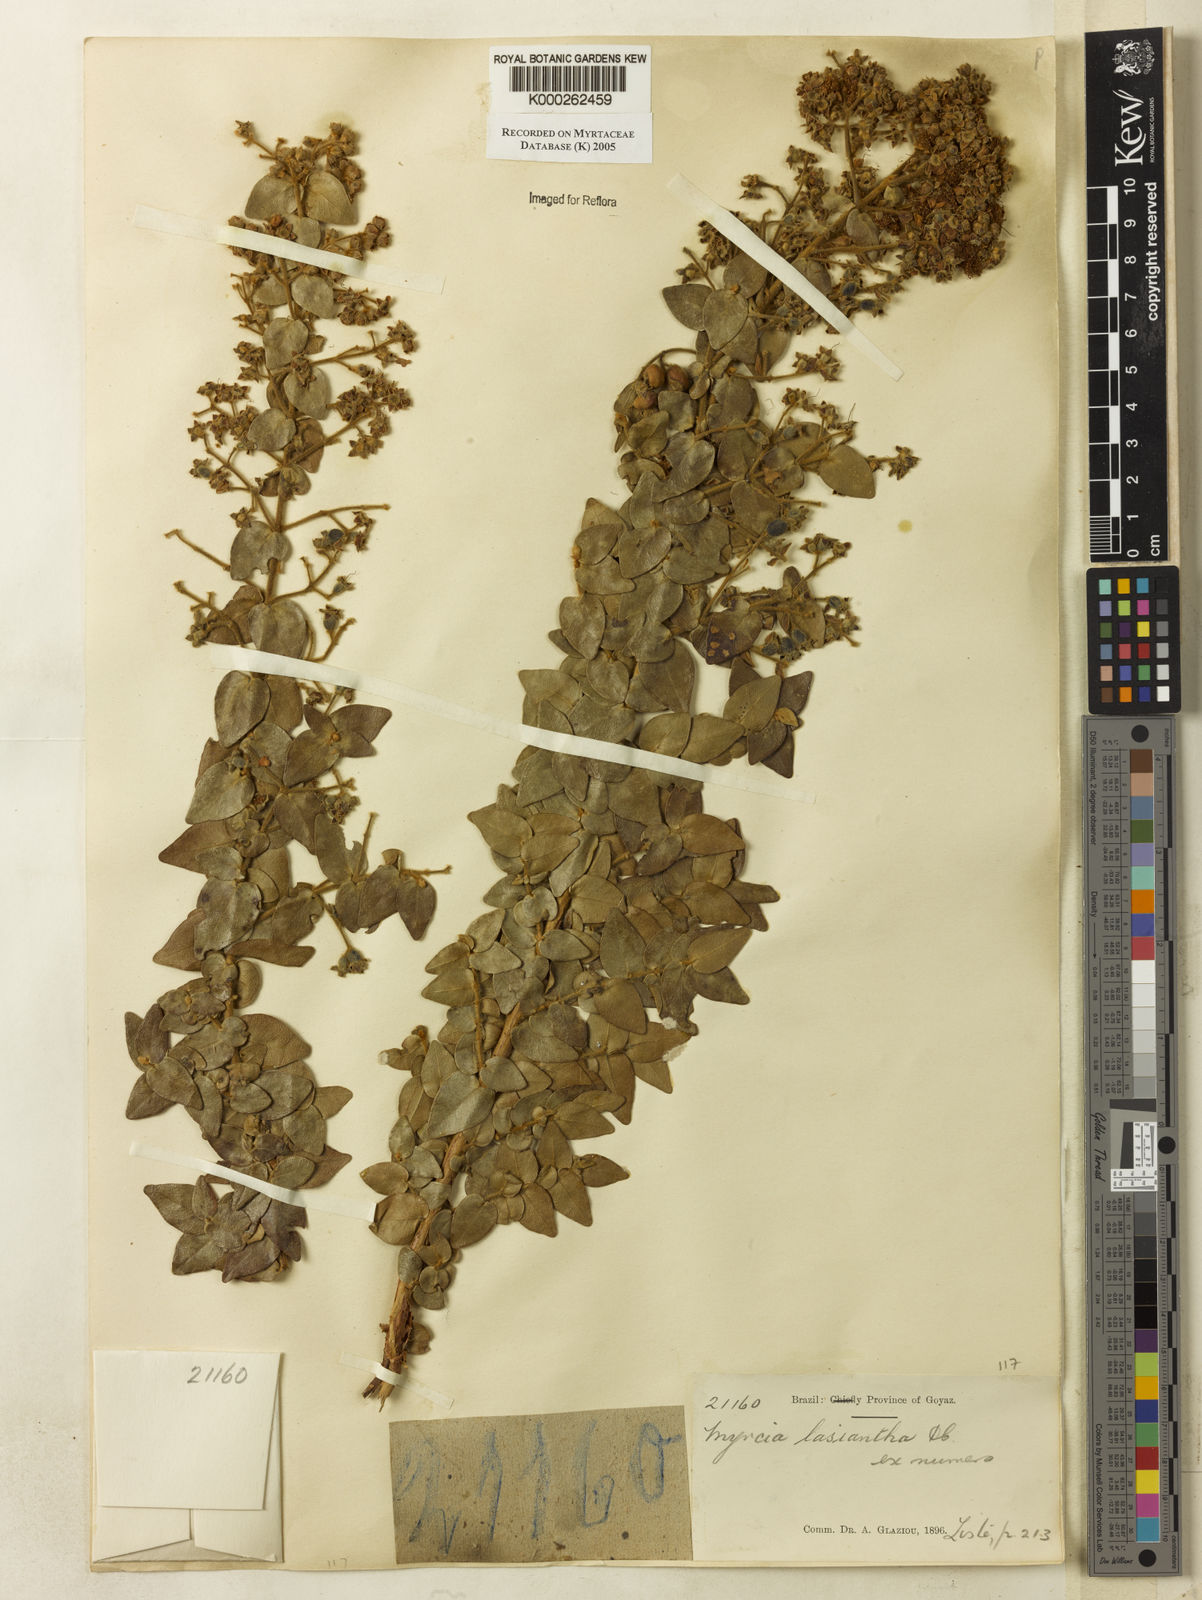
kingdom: Plantae
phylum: Tracheophyta
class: Magnoliopsida
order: Myrtales
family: Myrtaceae
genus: Myrcia
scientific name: Myrcia lasiantha
